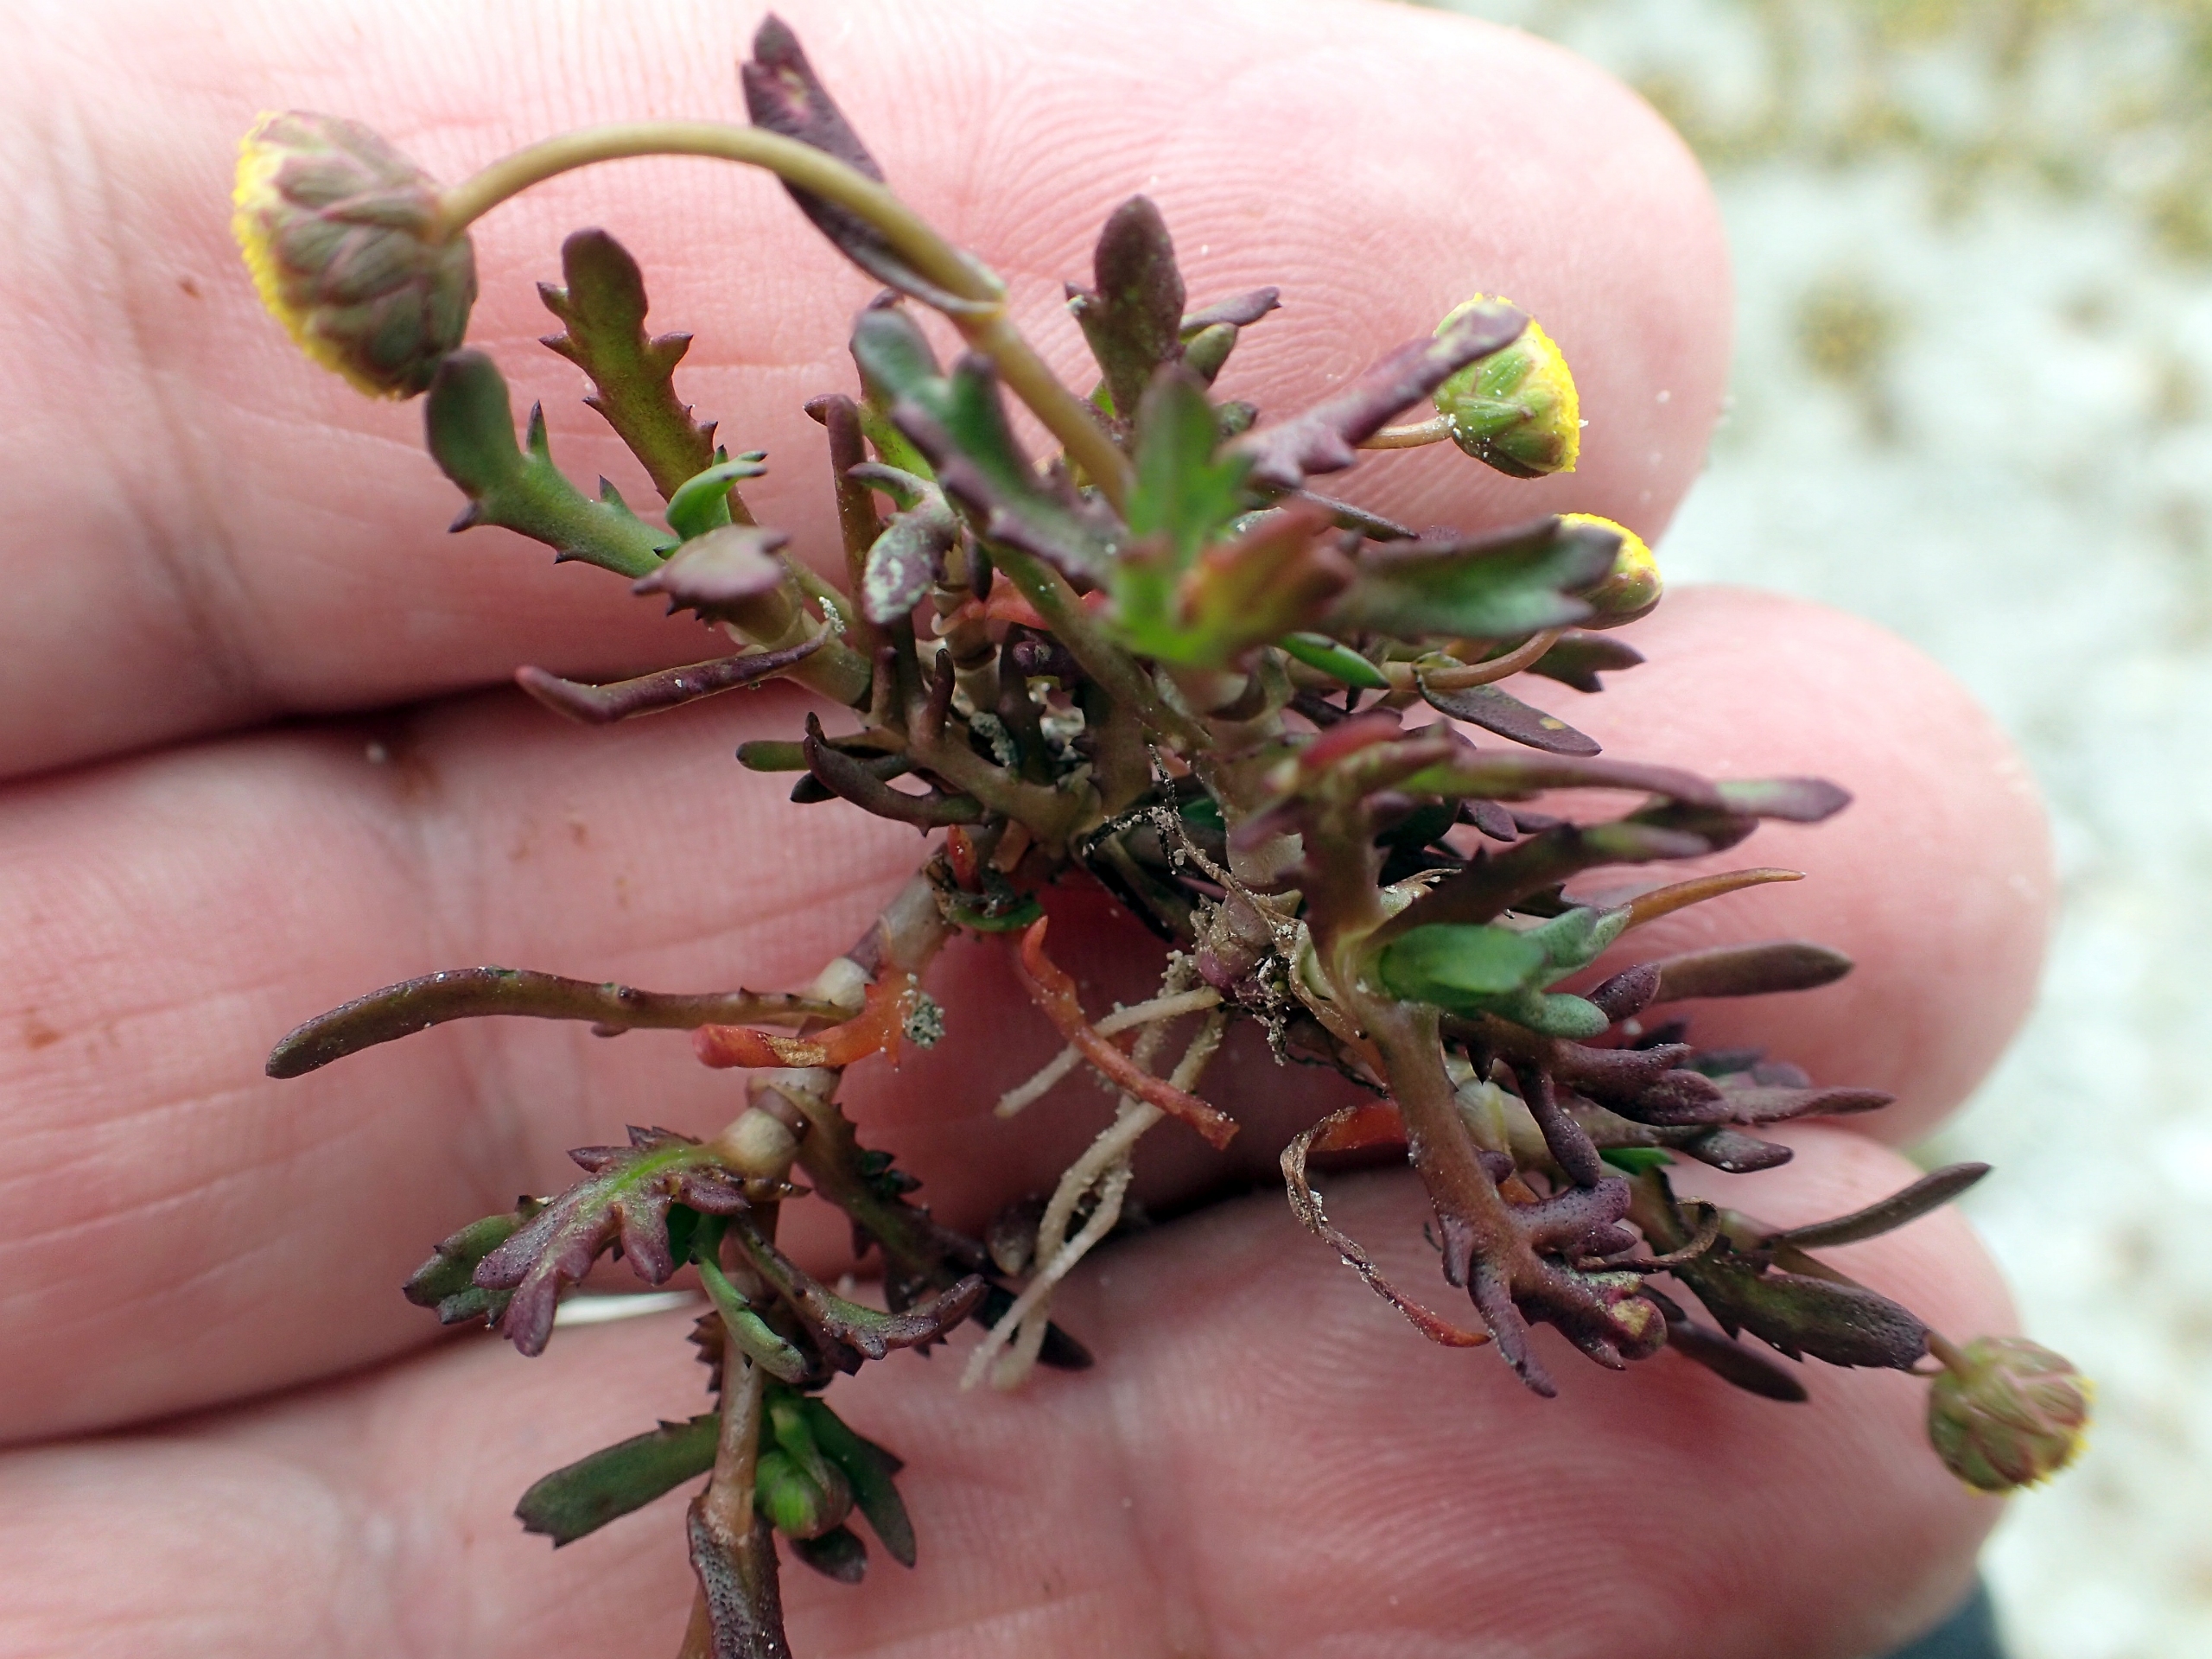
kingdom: Plantae
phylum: Tracheophyta
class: Magnoliopsida
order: Asterales
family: Asteraceae
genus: Cotula
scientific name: Cotula coronopifolia
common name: Firkløft
